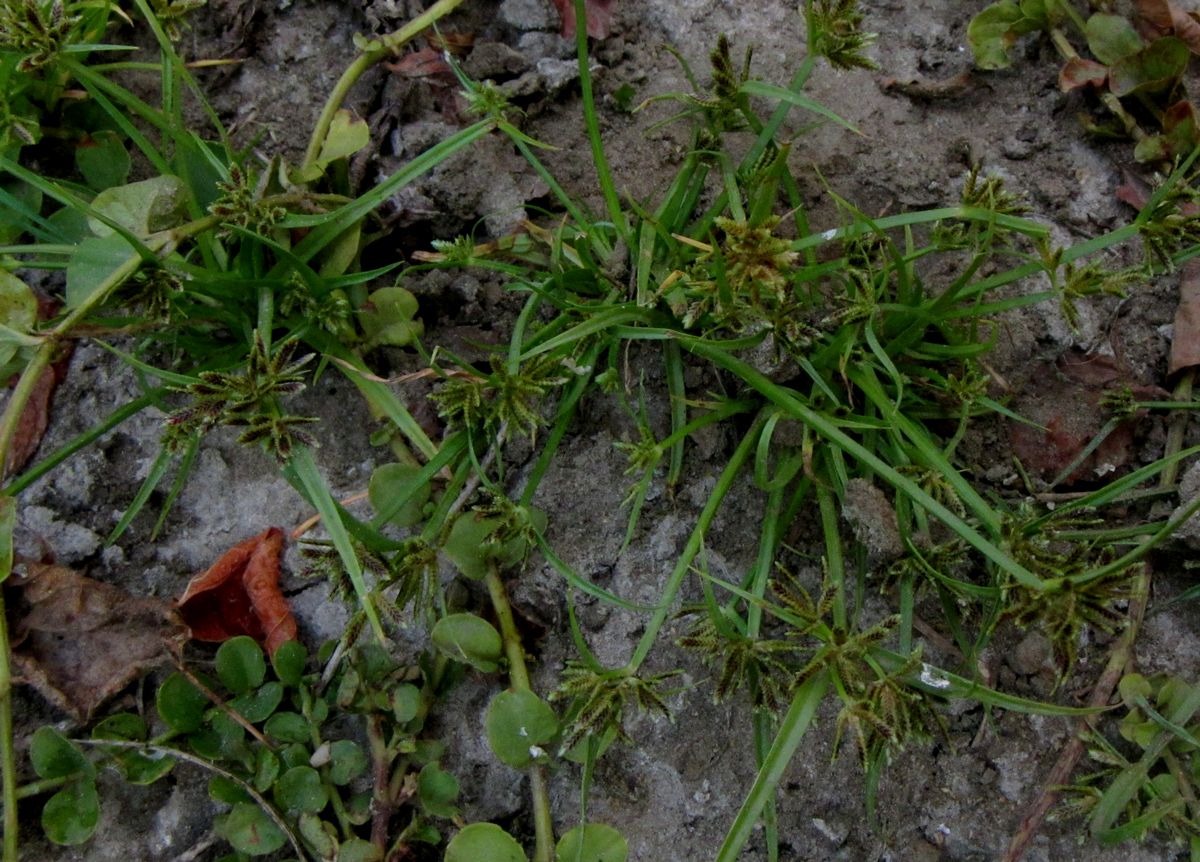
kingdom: Plantae
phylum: Tracheophyta
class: Liliopsida
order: Poales
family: Cyperaceae
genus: Cyperus
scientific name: Cyperus fuscus
